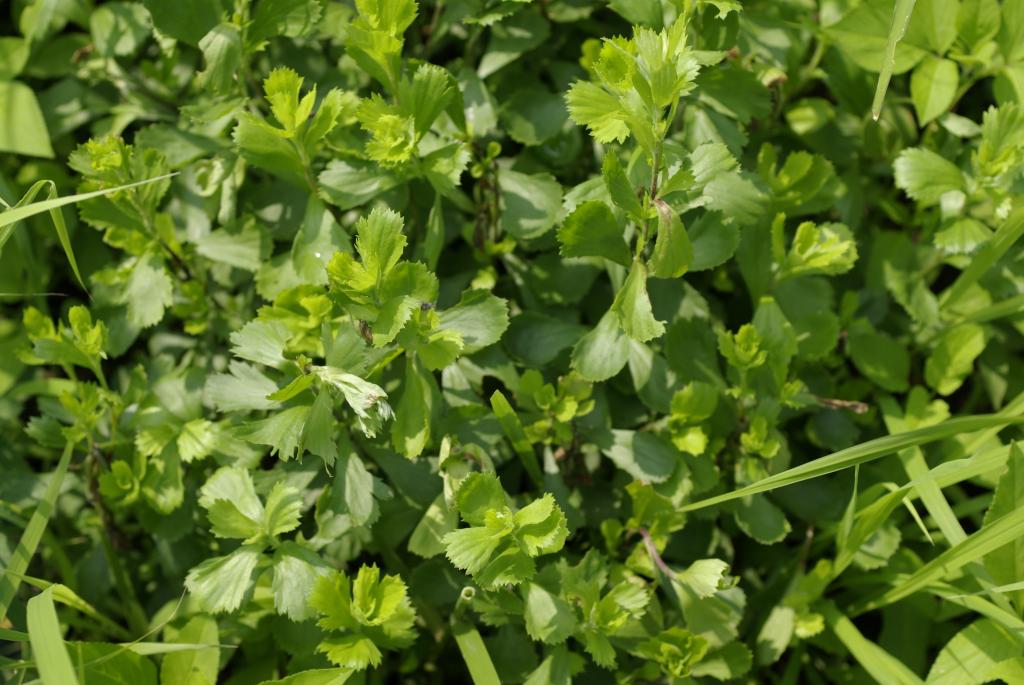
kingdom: Plantae
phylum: Tracheophyta
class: Magnoliopsida
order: Asterales
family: Asteraceae
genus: Artemisia
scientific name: Artemisia japonica
